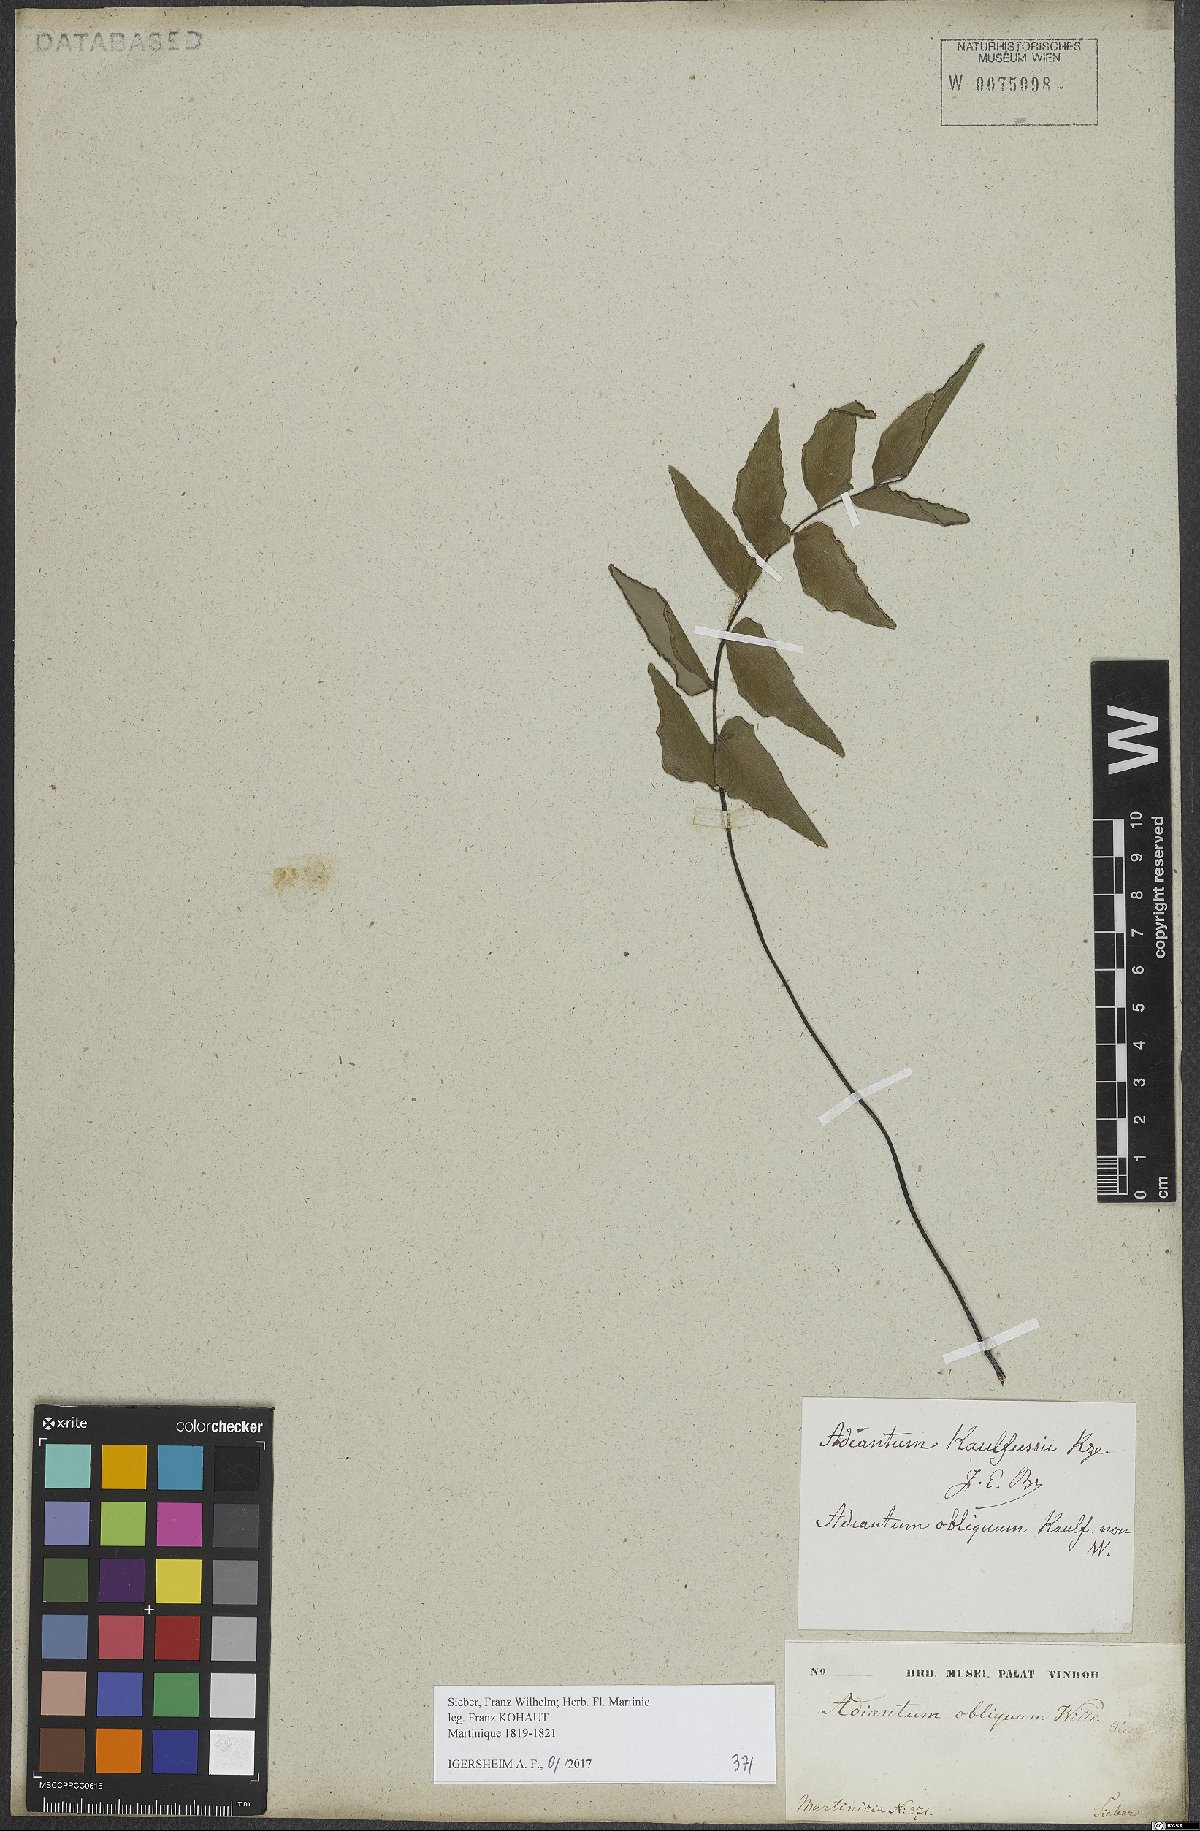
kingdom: Plantae
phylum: Tracheophyta
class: Polypodiopsida
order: Polypodiales
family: Pteridaceae
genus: Adiantum
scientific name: Adiantum petiolatum
